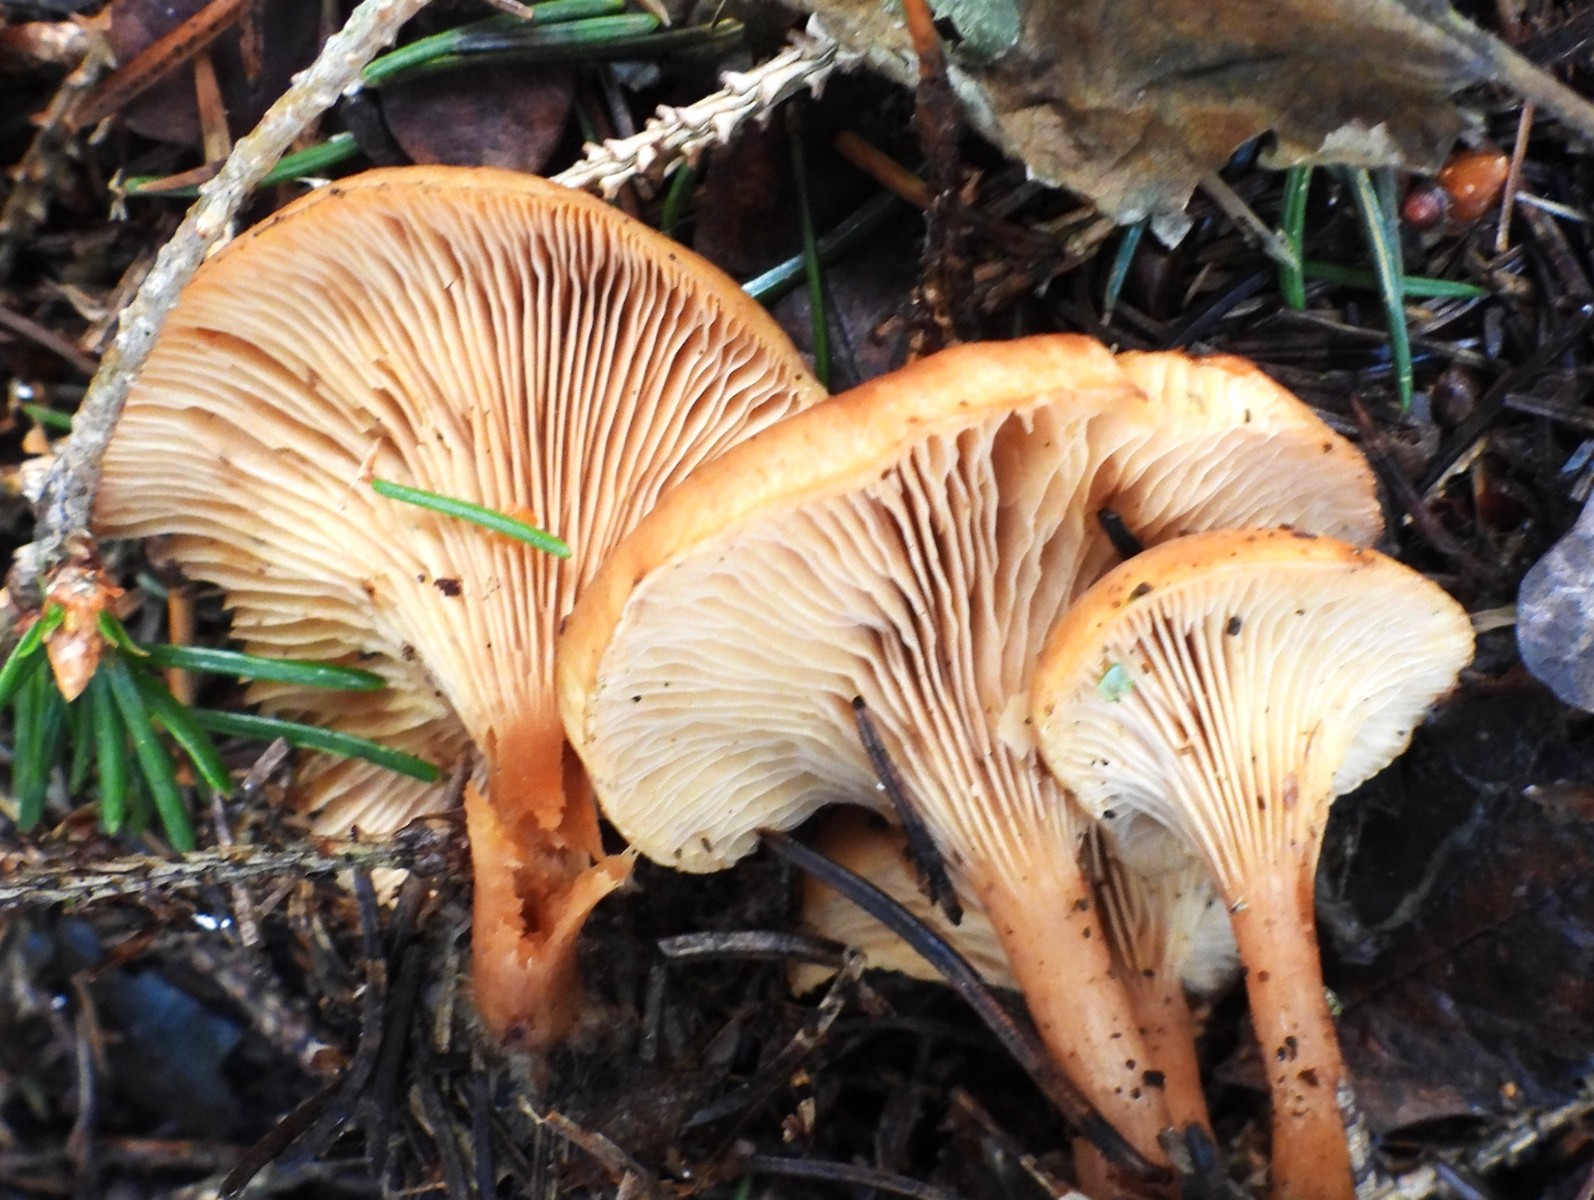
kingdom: Fungi
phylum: Basidiomycota
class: Agaricomycetes
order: Agaricales
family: Tricholomataceae
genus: Paralepista
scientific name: Paralepista flaccida
